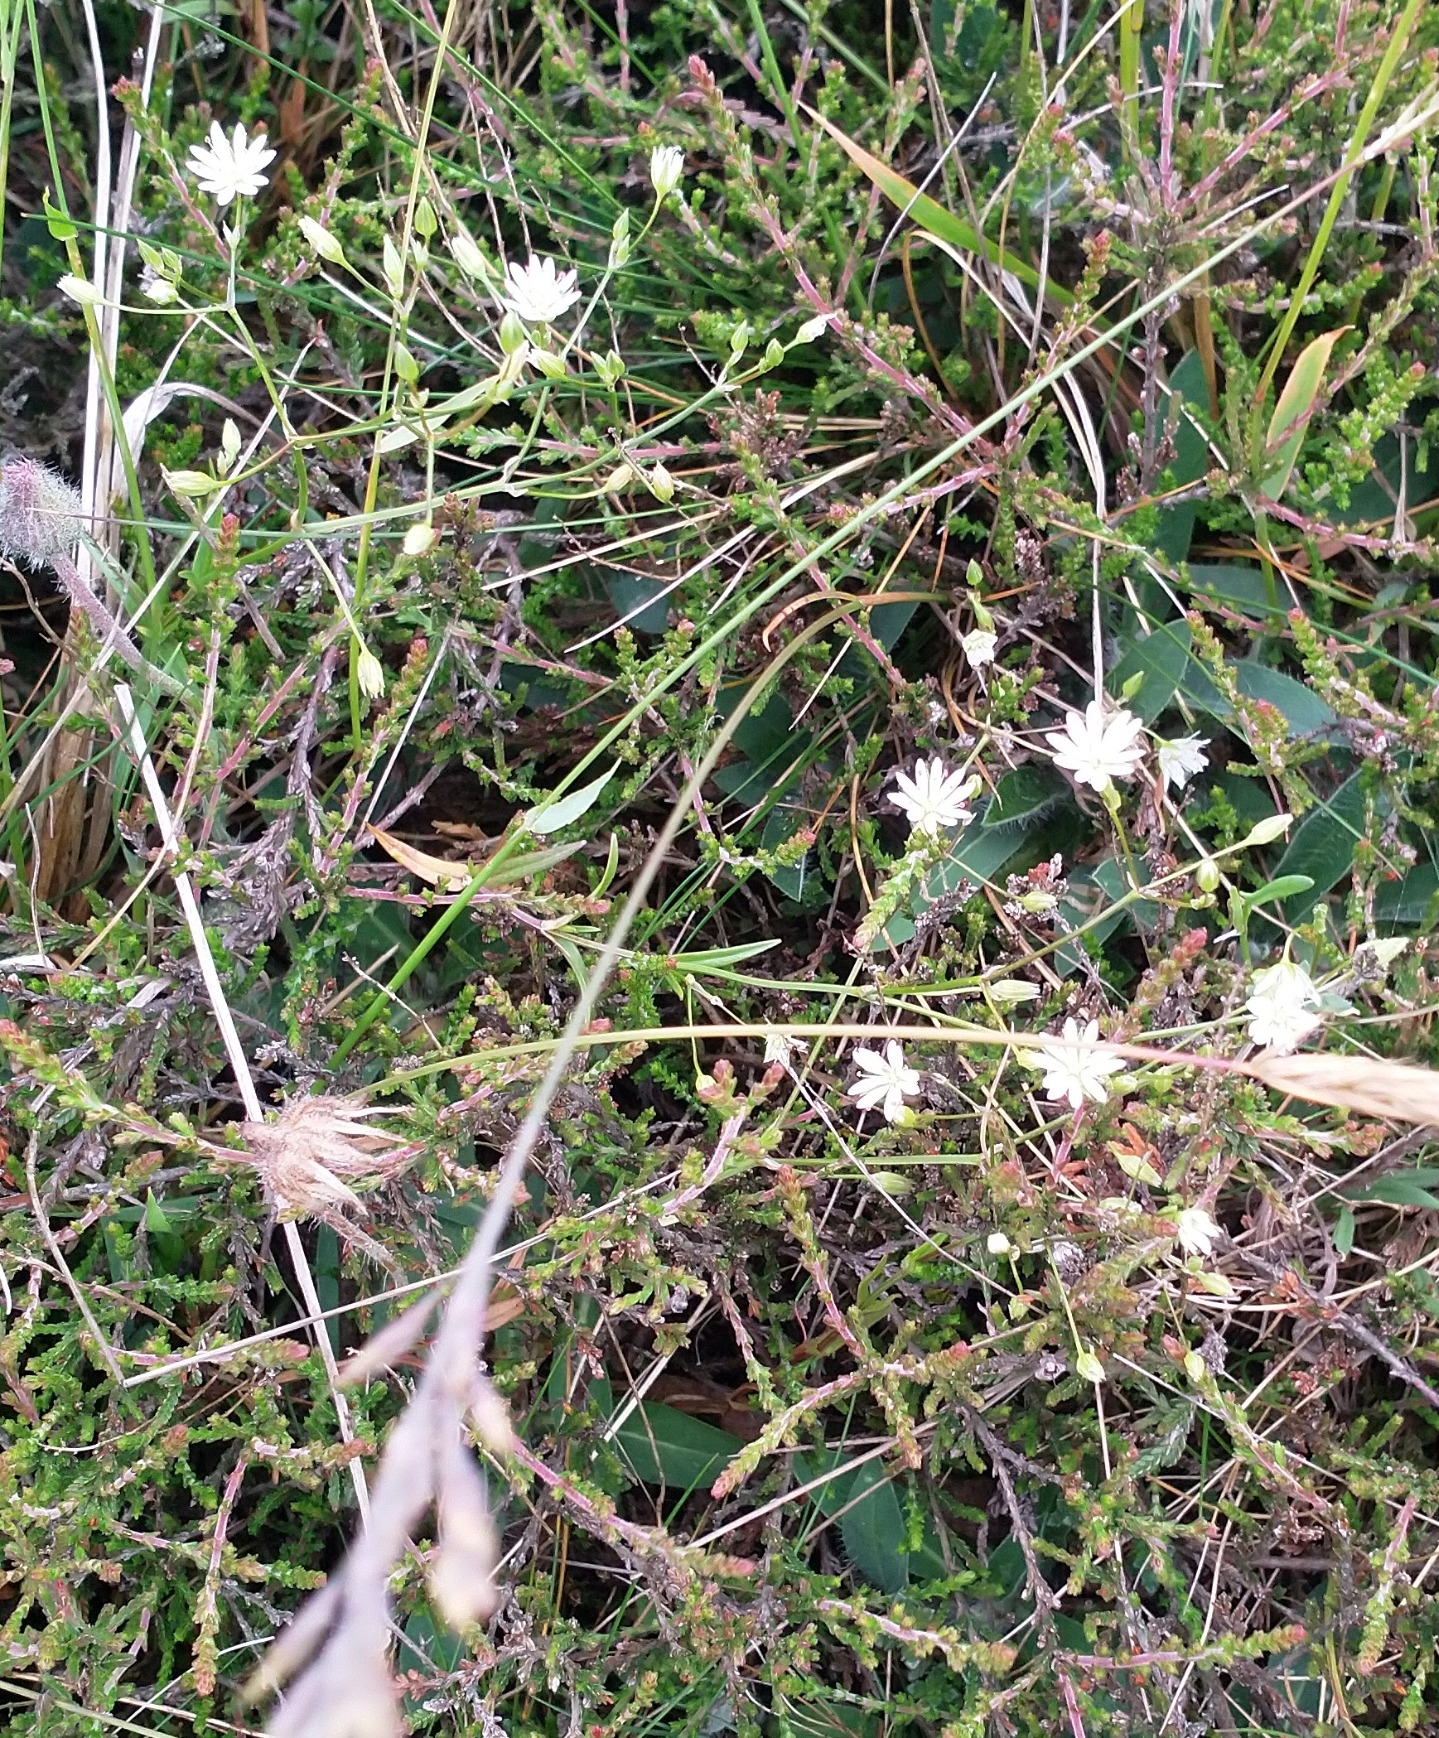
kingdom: Plantae
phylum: Tracheophyta
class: Magnoliopsida
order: Caryophyllales
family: Caryophyllaceae
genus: Stellaria
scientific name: Stellaria graminea
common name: Græsbladet fladstjerne
